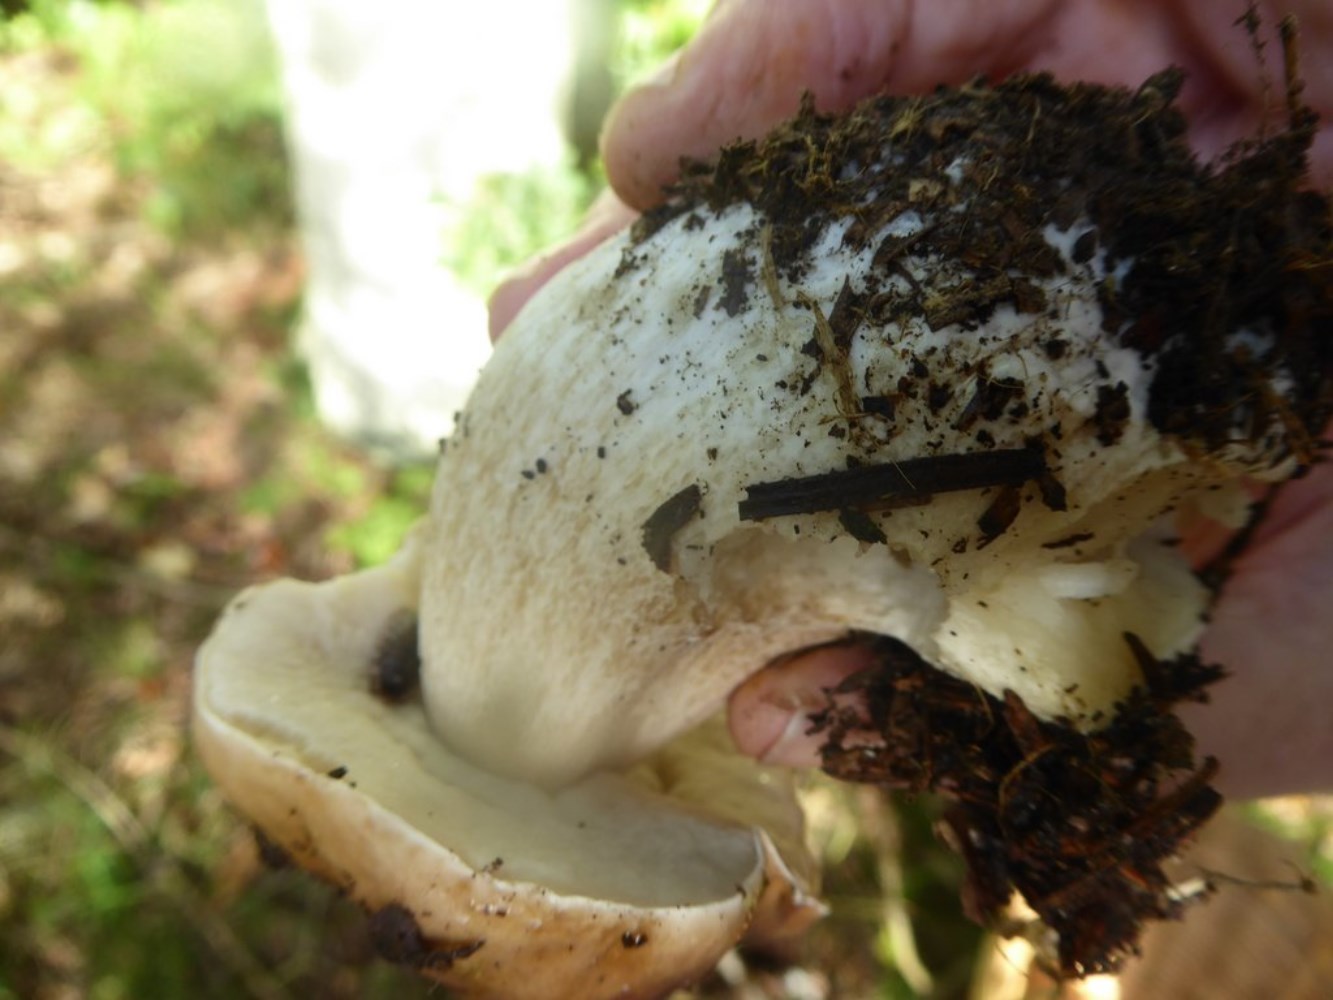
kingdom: Fungi
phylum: Basidiomycota
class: Agaricomycetes
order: Boletales
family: Boletaceae
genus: Boletus
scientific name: Boletus edulis
